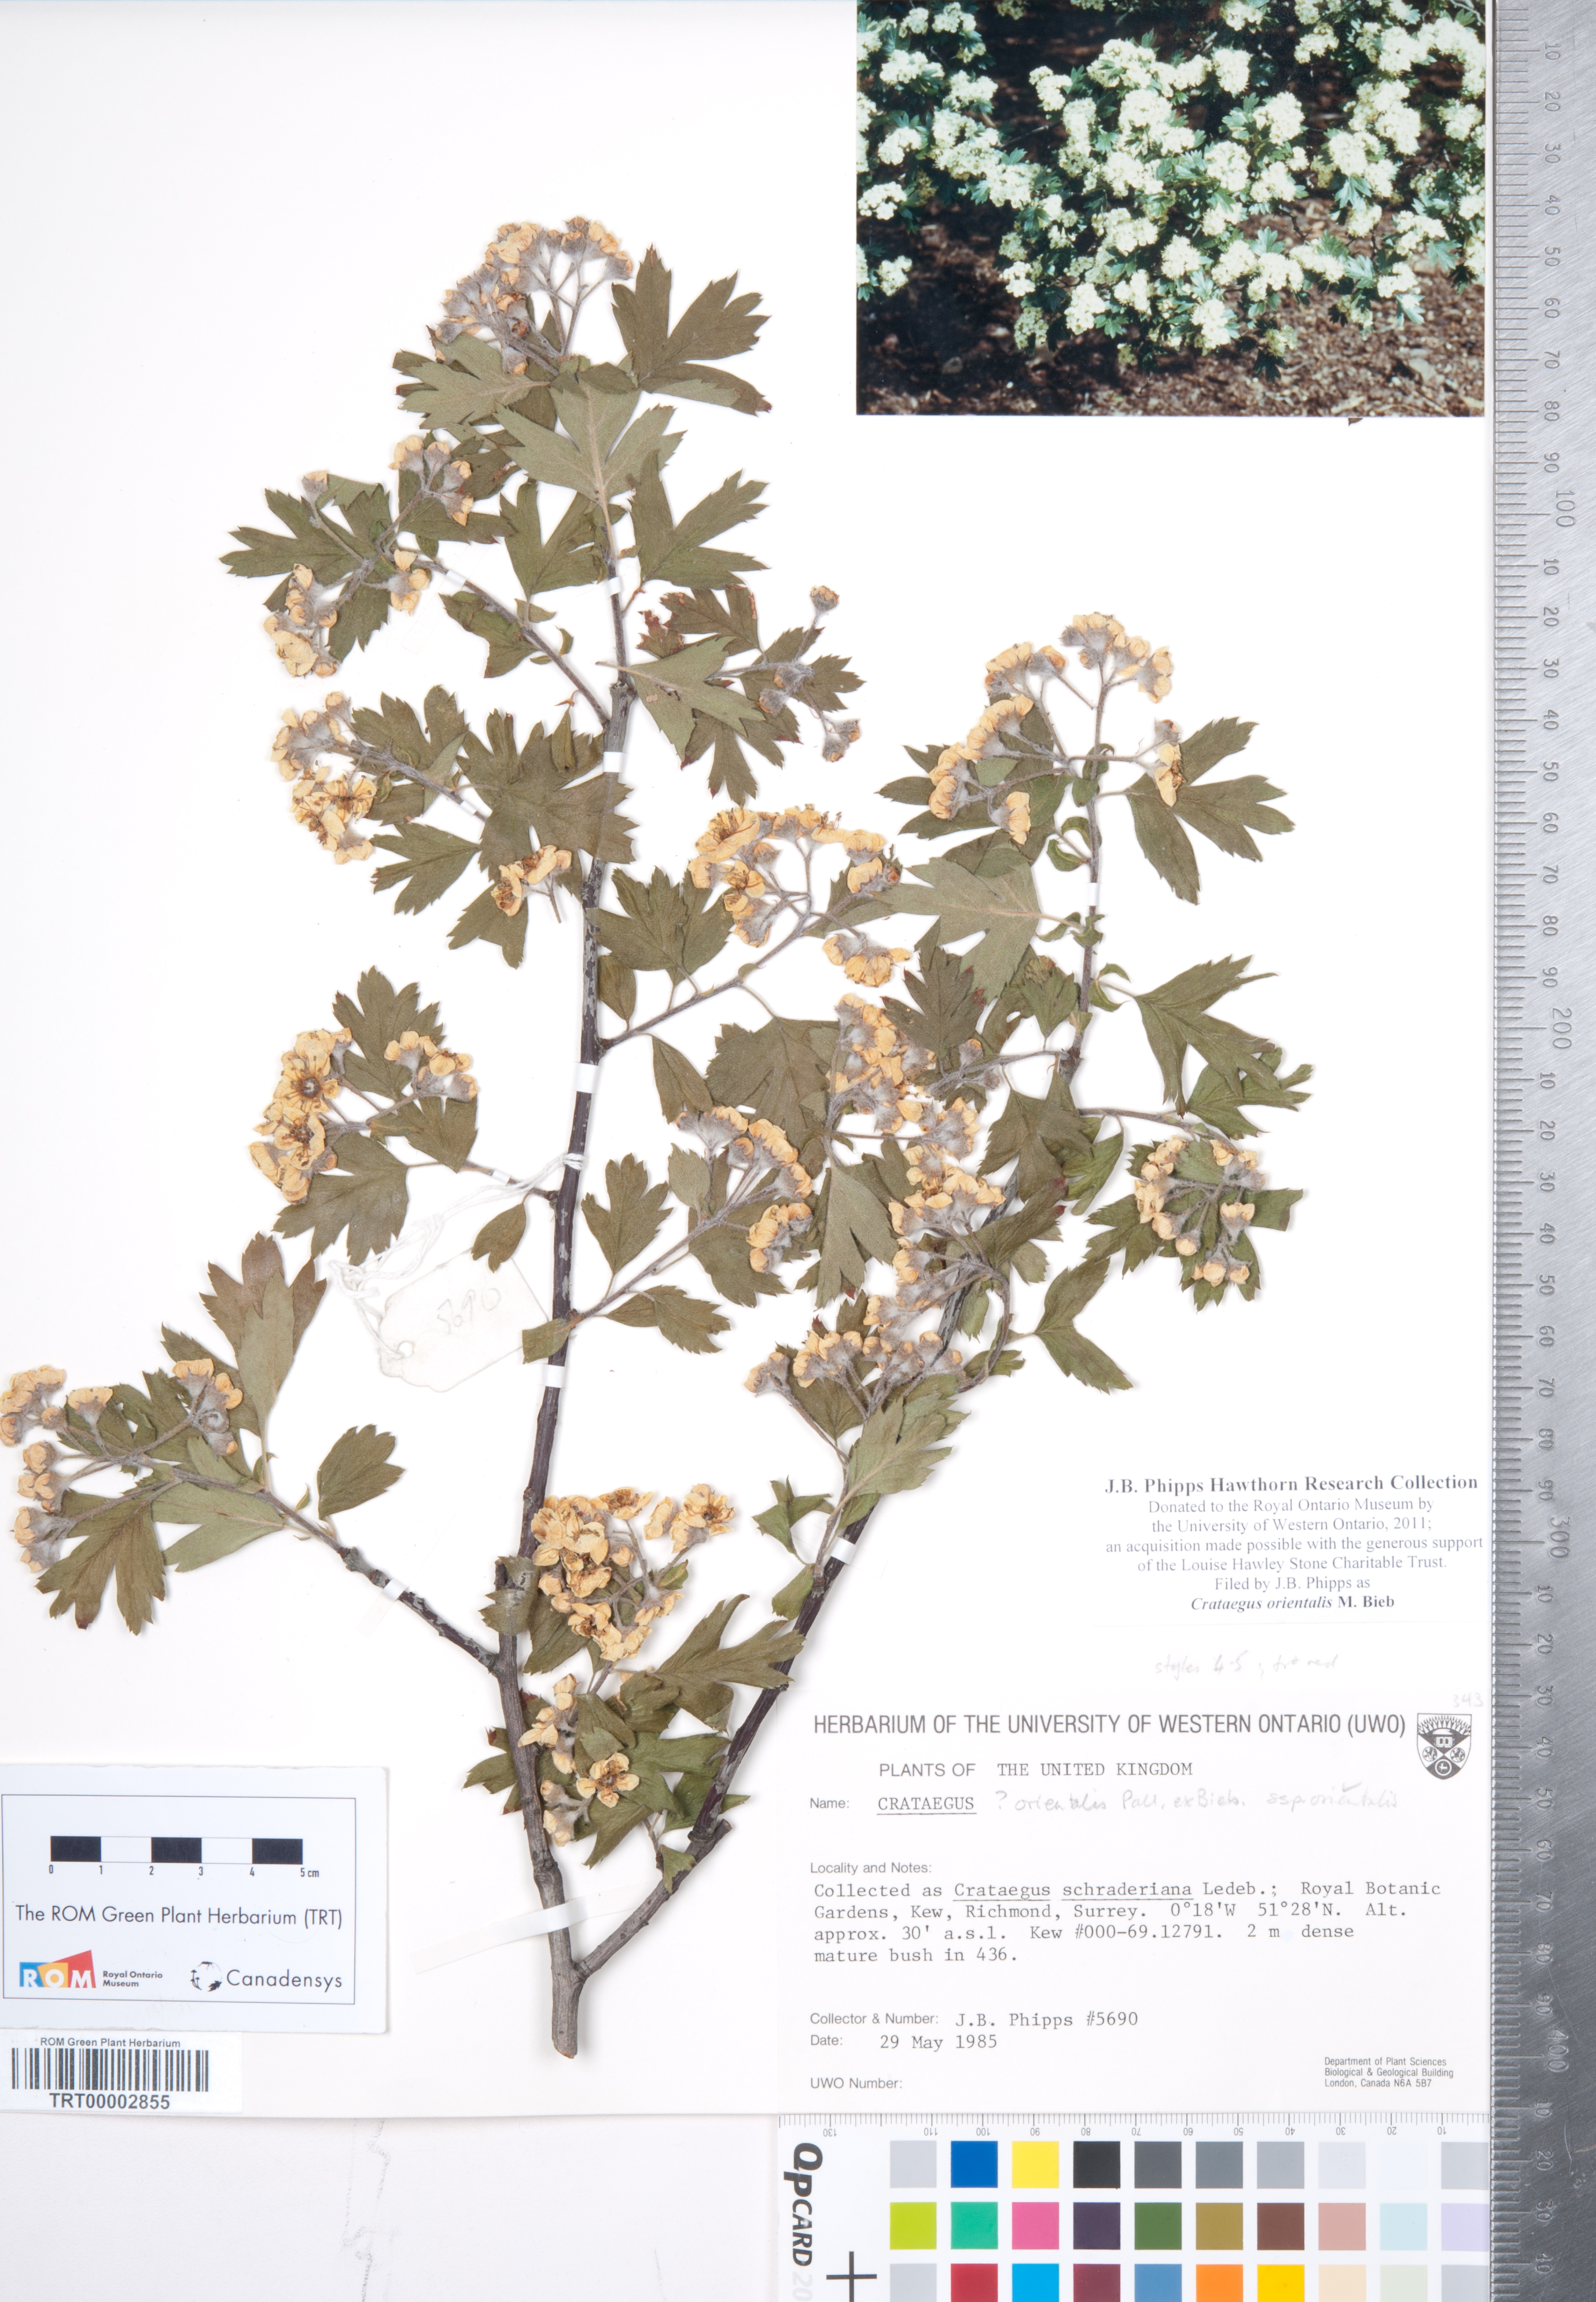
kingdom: Plantae
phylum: Tracheophyta
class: Magnoliopsida
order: Rosales
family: Rosaceae
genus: Crataegus
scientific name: Crataegus orientalis
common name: Oriental hawthorn
